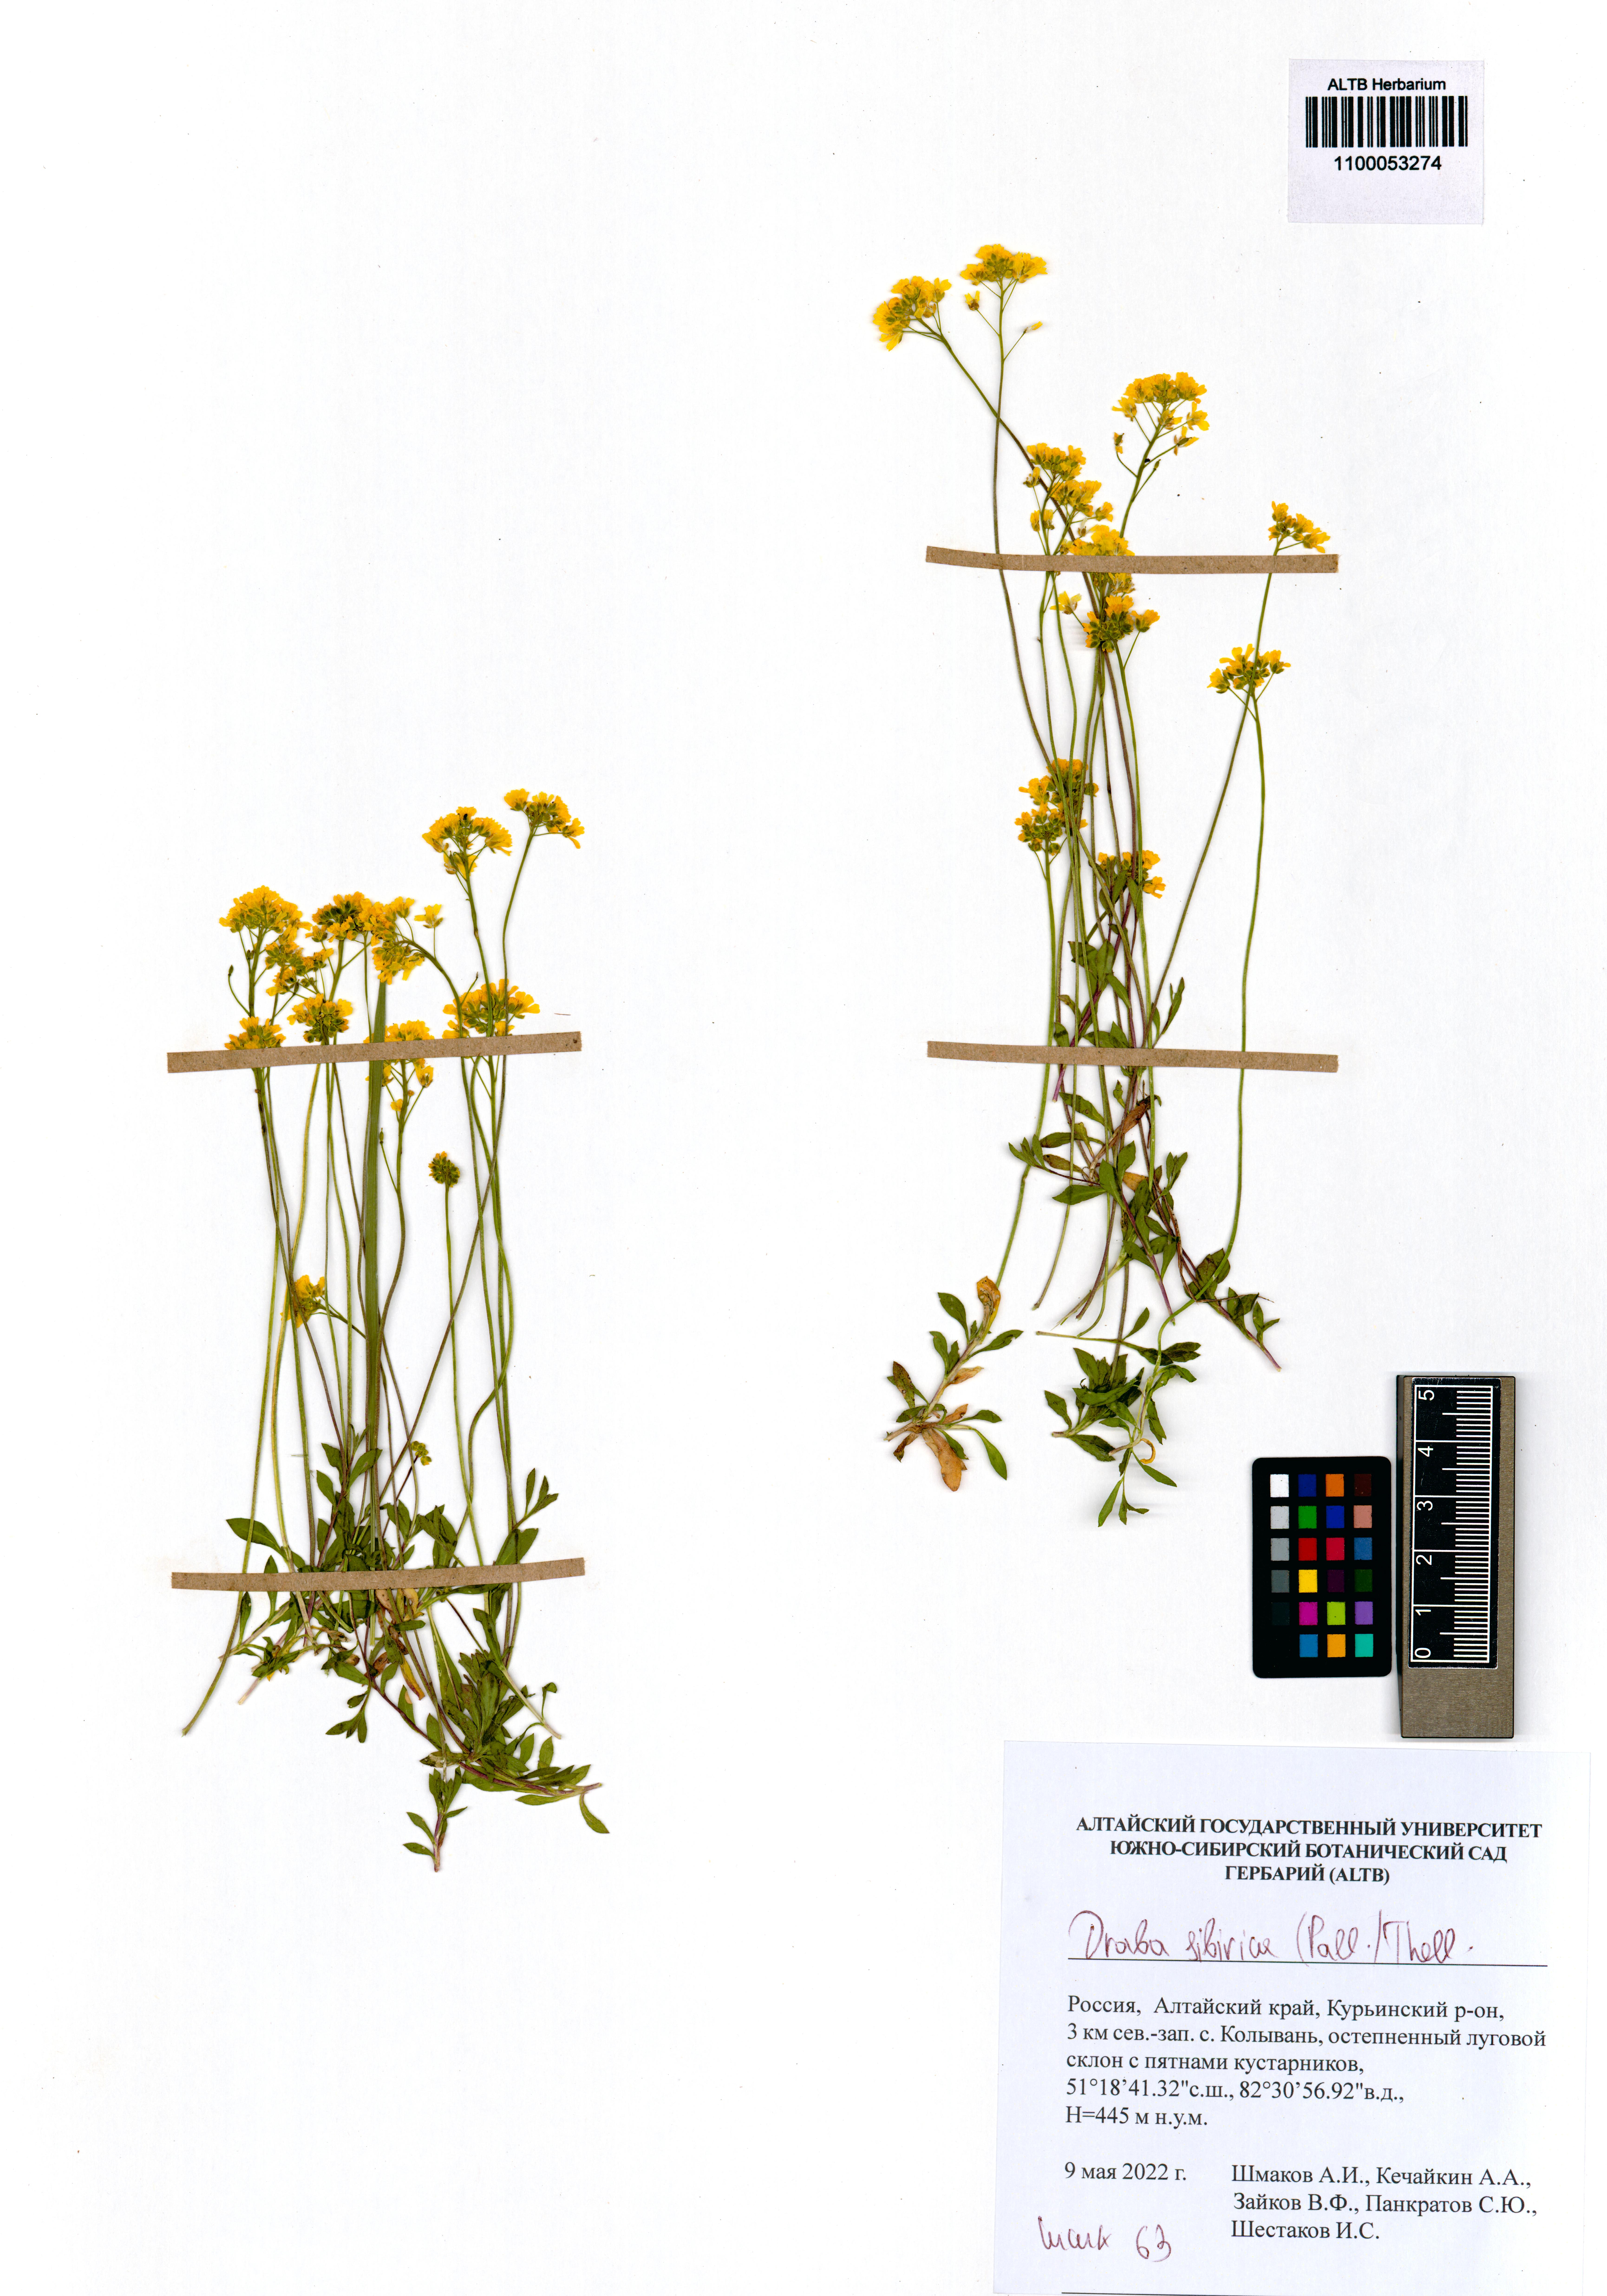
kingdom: Plantae
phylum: Tracheophyta
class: Magnoliopsida
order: Brassicales
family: Brassicaceae
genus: Draba
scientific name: Draba sibirica
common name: Siberian draba
